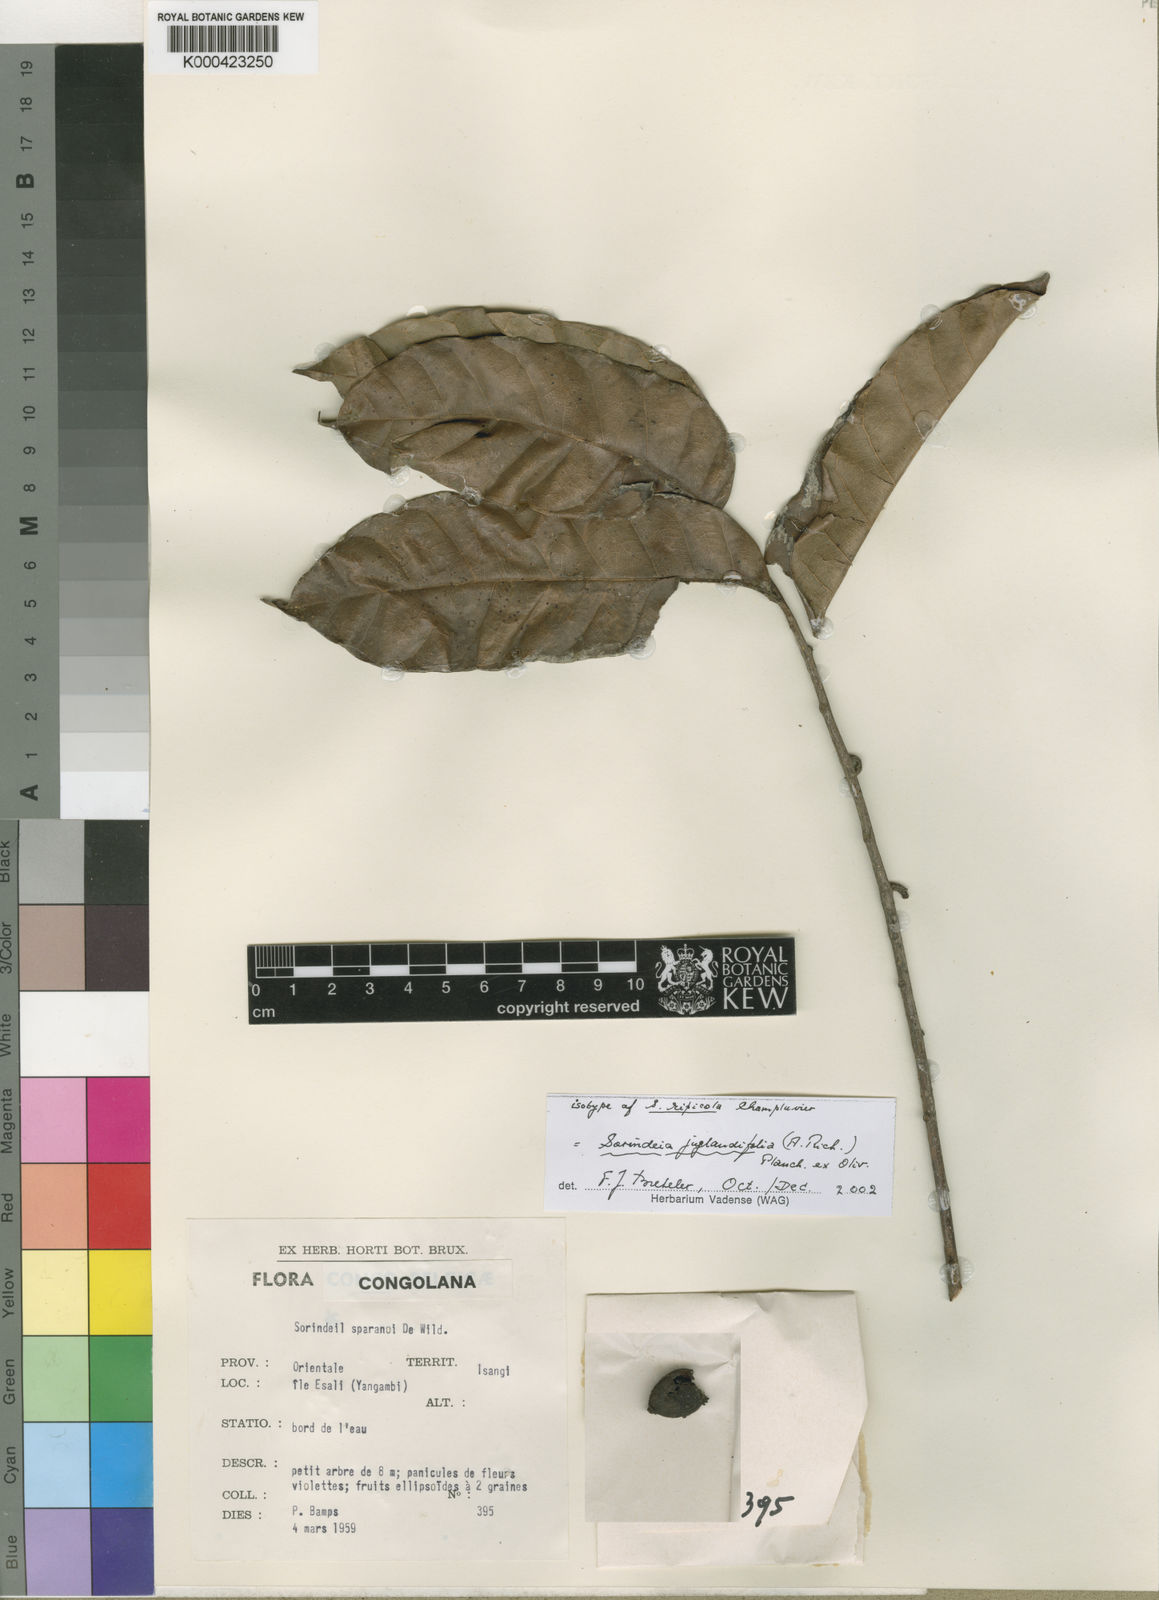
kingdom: Plantae
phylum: Tracheophyta
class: Magnoliopsida
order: Sapindales
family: Anacardiaceae
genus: Sorindeia
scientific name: Sorindeia juglandifolia
